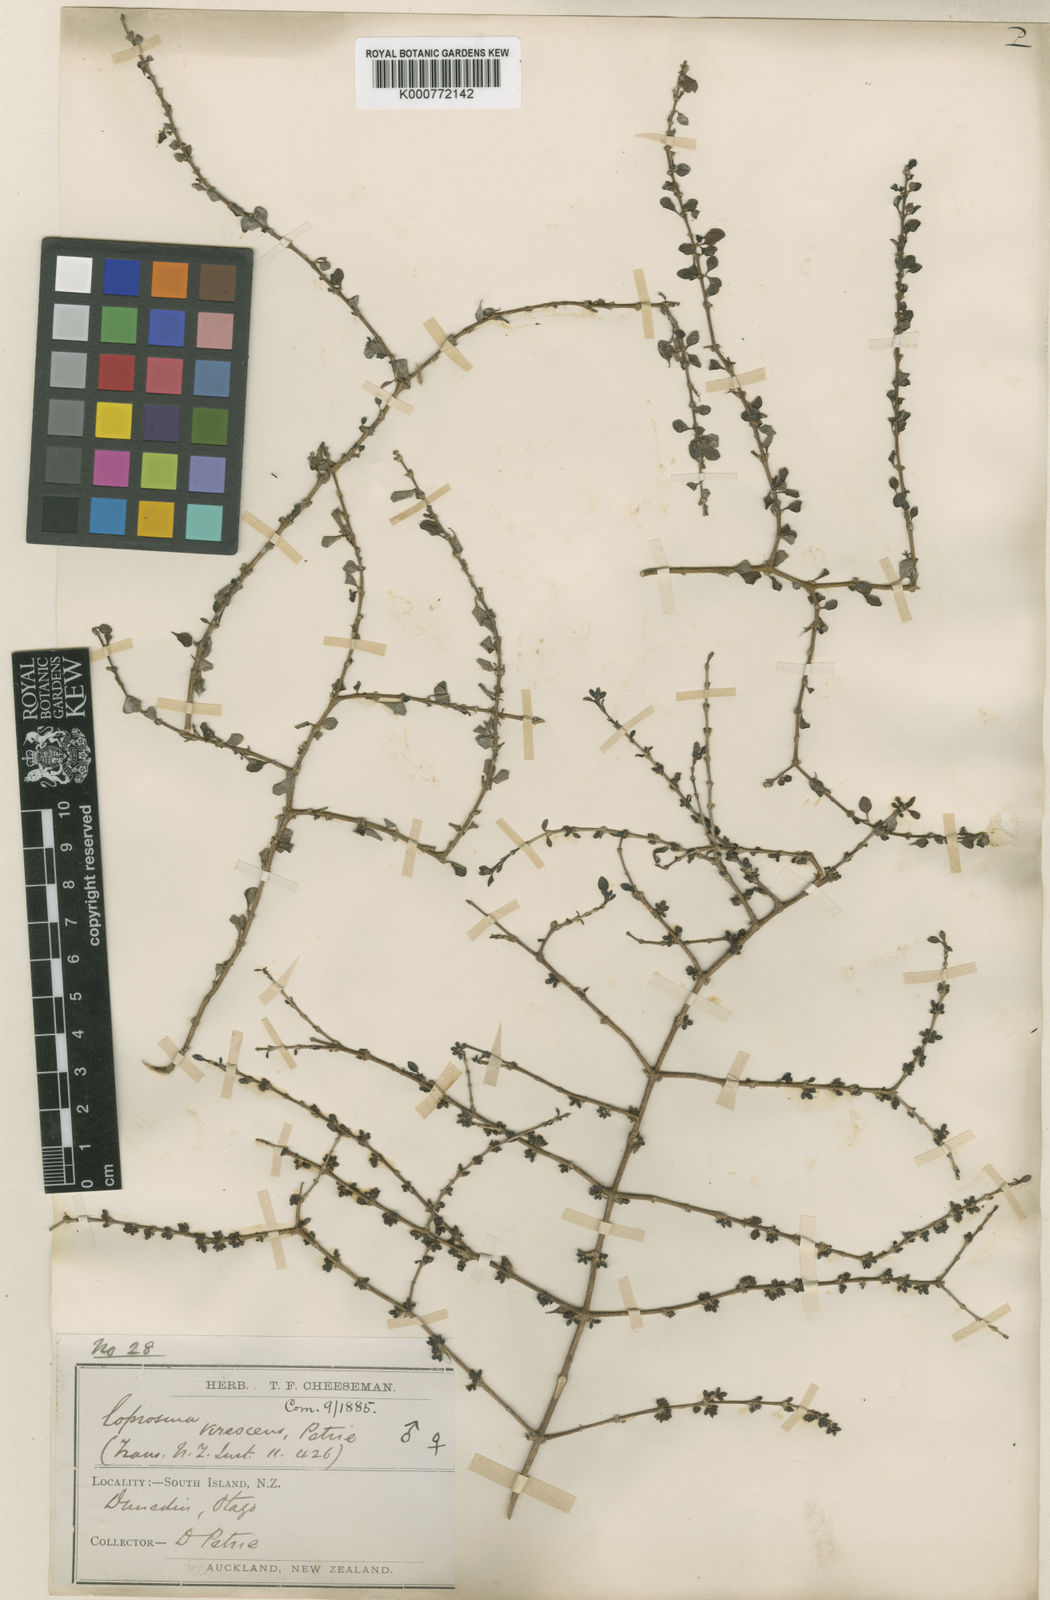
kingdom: Plantae
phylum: Tracheophyta
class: Magnoliopsida
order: Gentianales
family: Rubiaceae
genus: Coprosma
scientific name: Coprosma virescens
